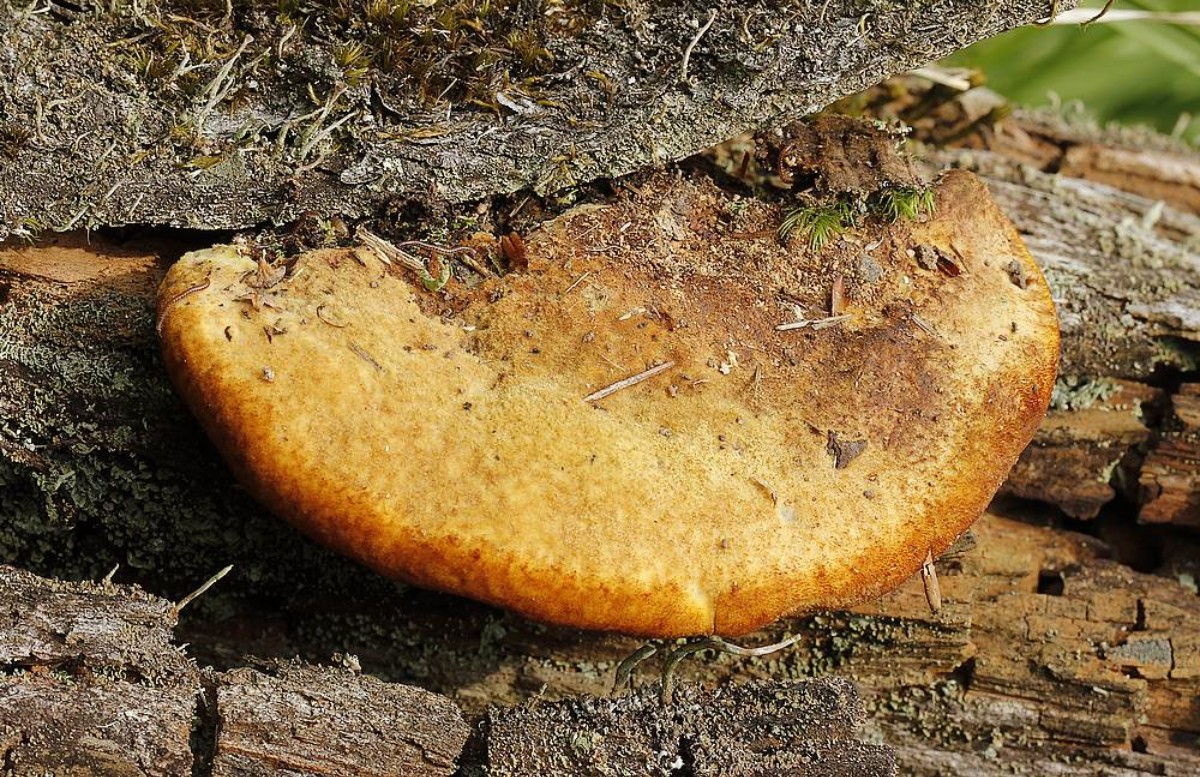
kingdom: Fungi
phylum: Basidiomycota
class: Agaricomycetes
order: Polyporales
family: Laetiporaceae
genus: Phaeolus
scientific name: Phaeolus schweinitzii
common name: brunporesvamp
